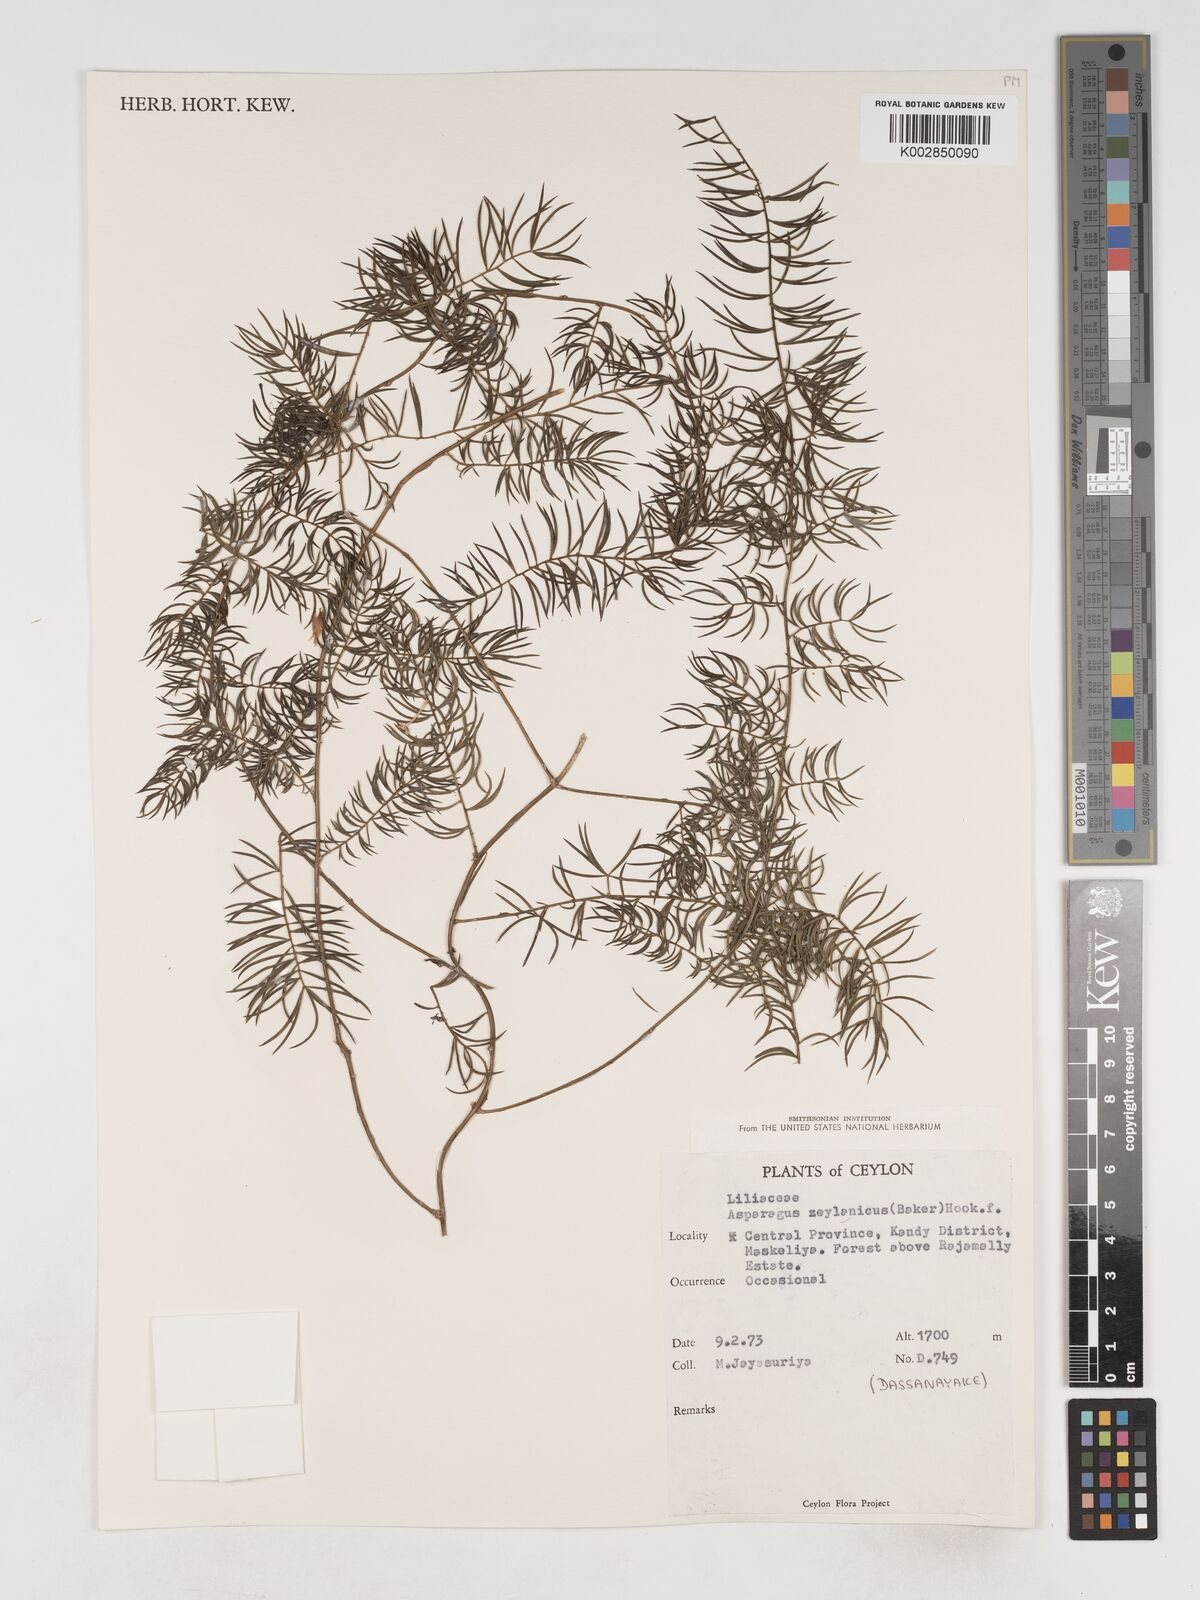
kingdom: Plantae
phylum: Tracheophyta
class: Liliopsida
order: Asparagales
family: Asparagaceae
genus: Asparagus
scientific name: Asparagus racemosus
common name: Asparagus-fern
